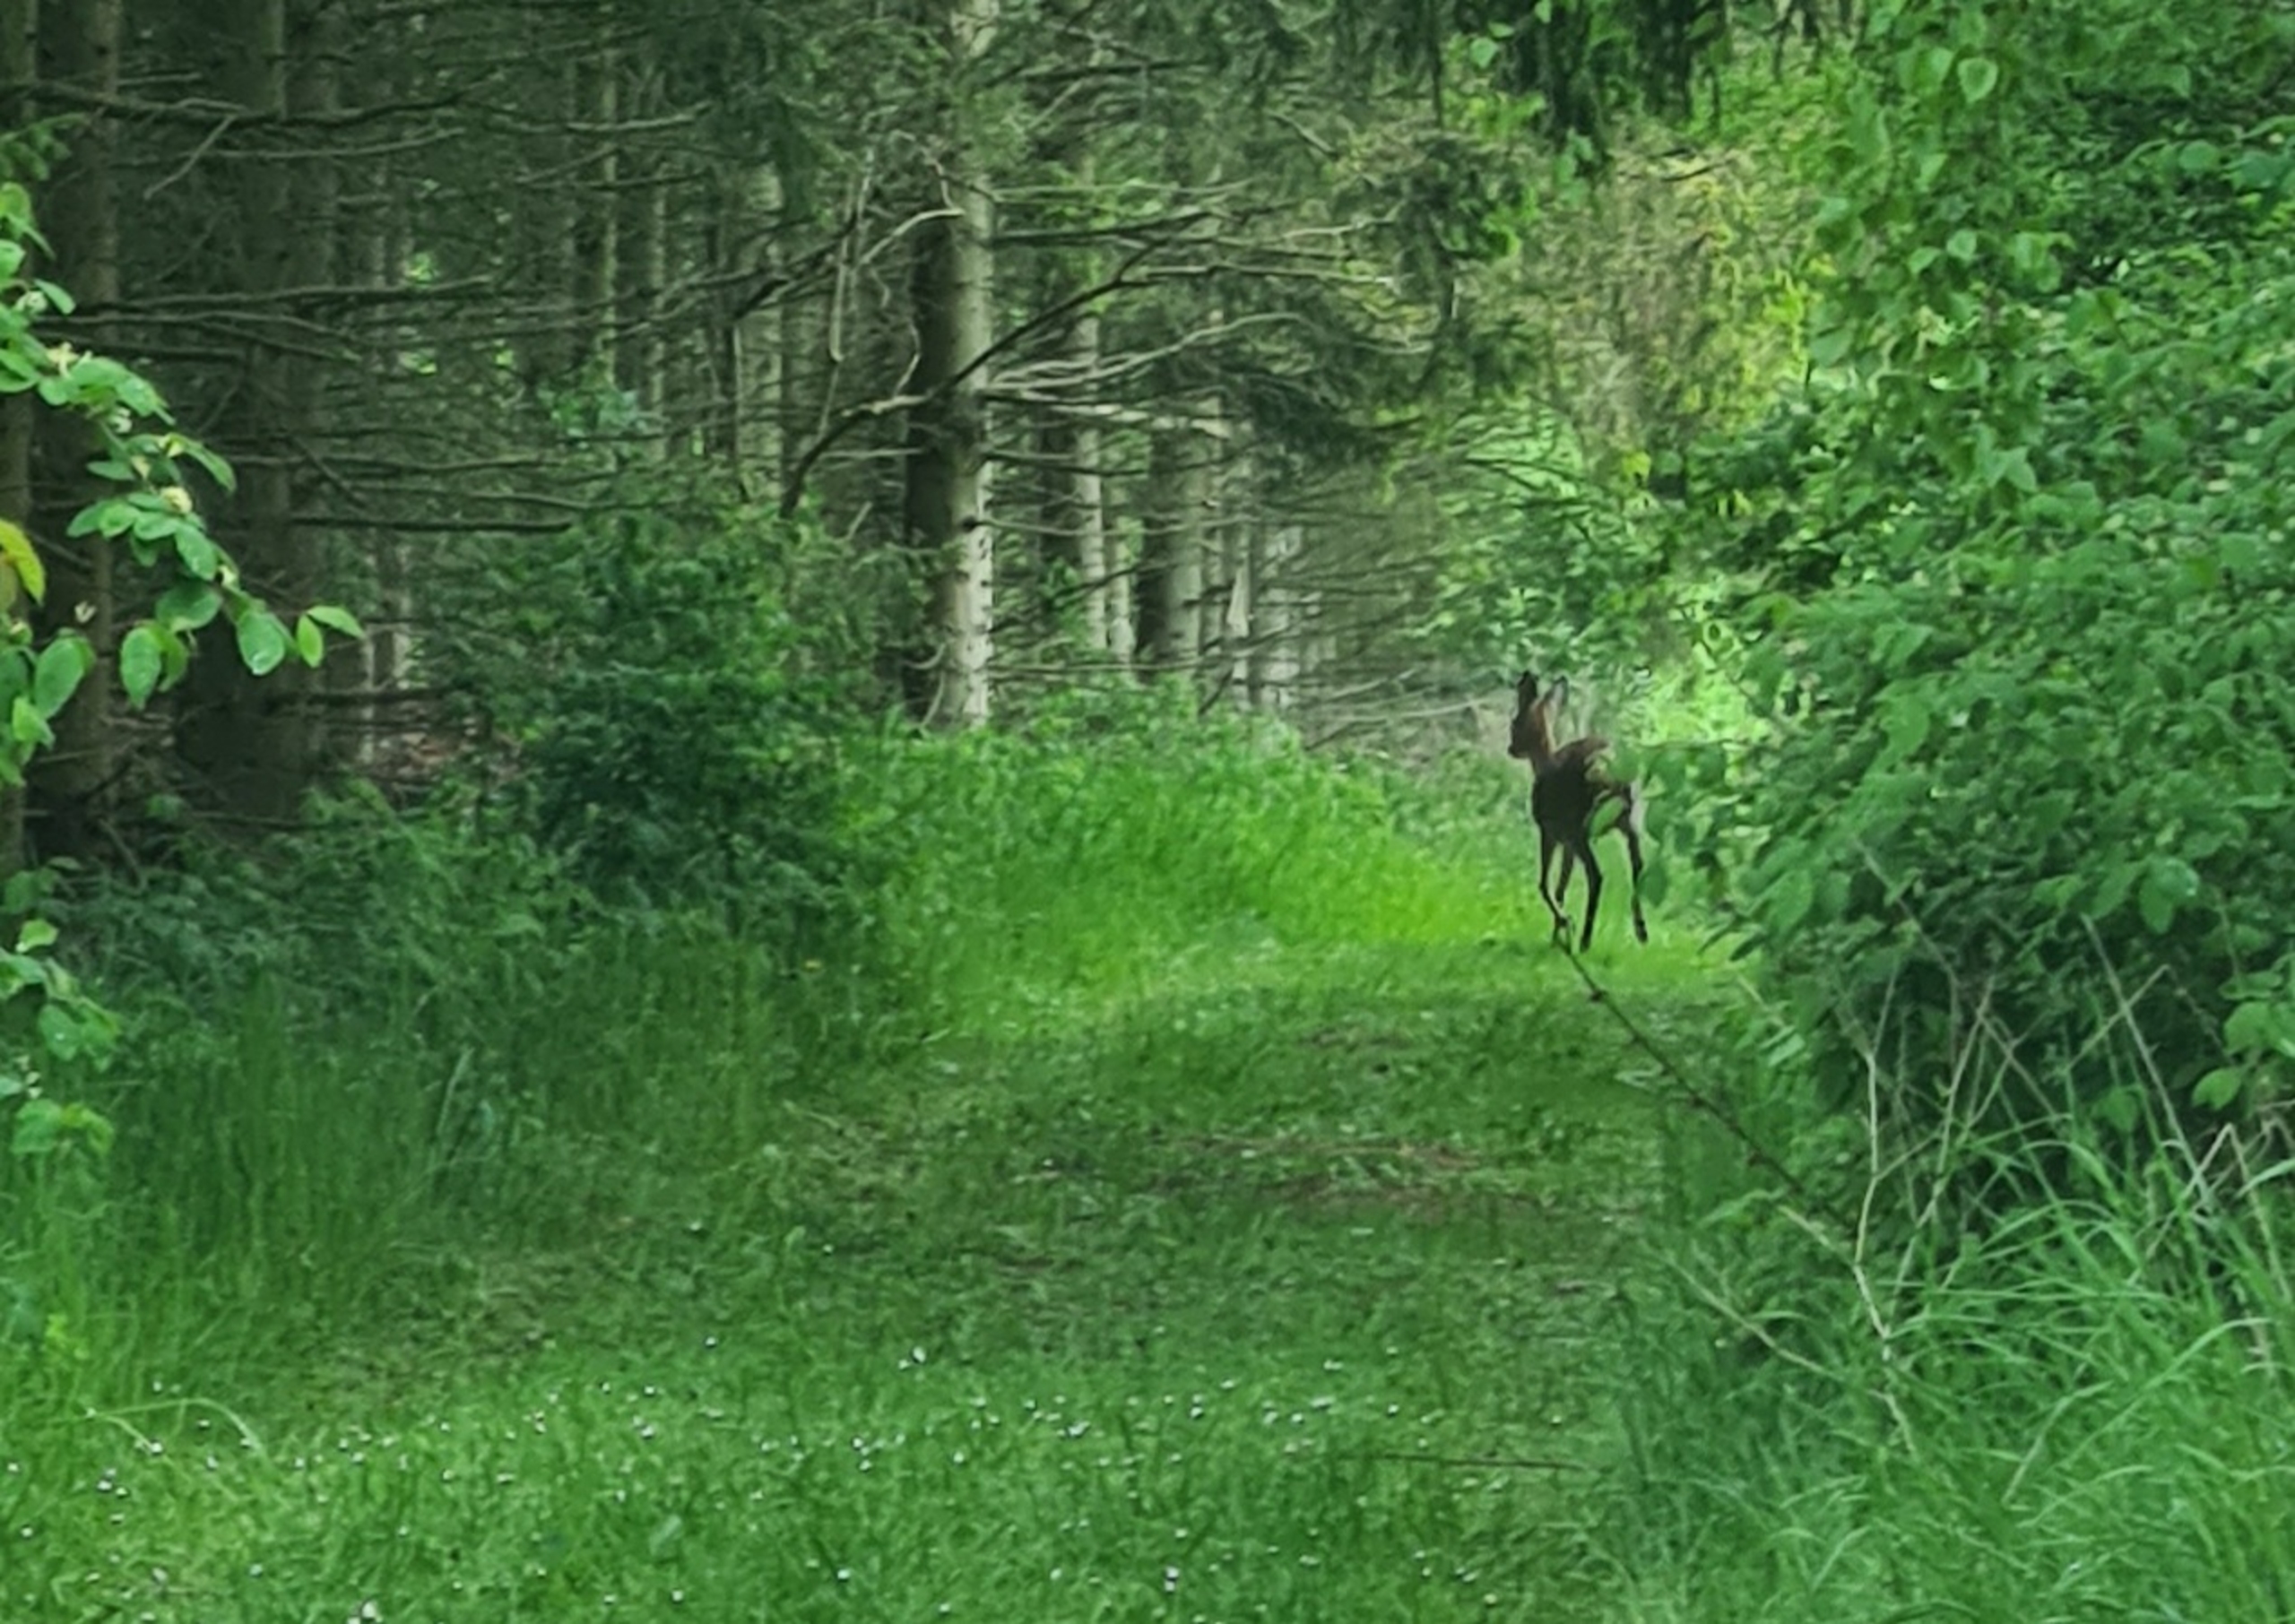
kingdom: Animalia
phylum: Chordata
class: Mammalia
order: Artiodactyla
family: Cervidae
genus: Capreolus
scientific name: Capreolus capreolus
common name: Rådyr
